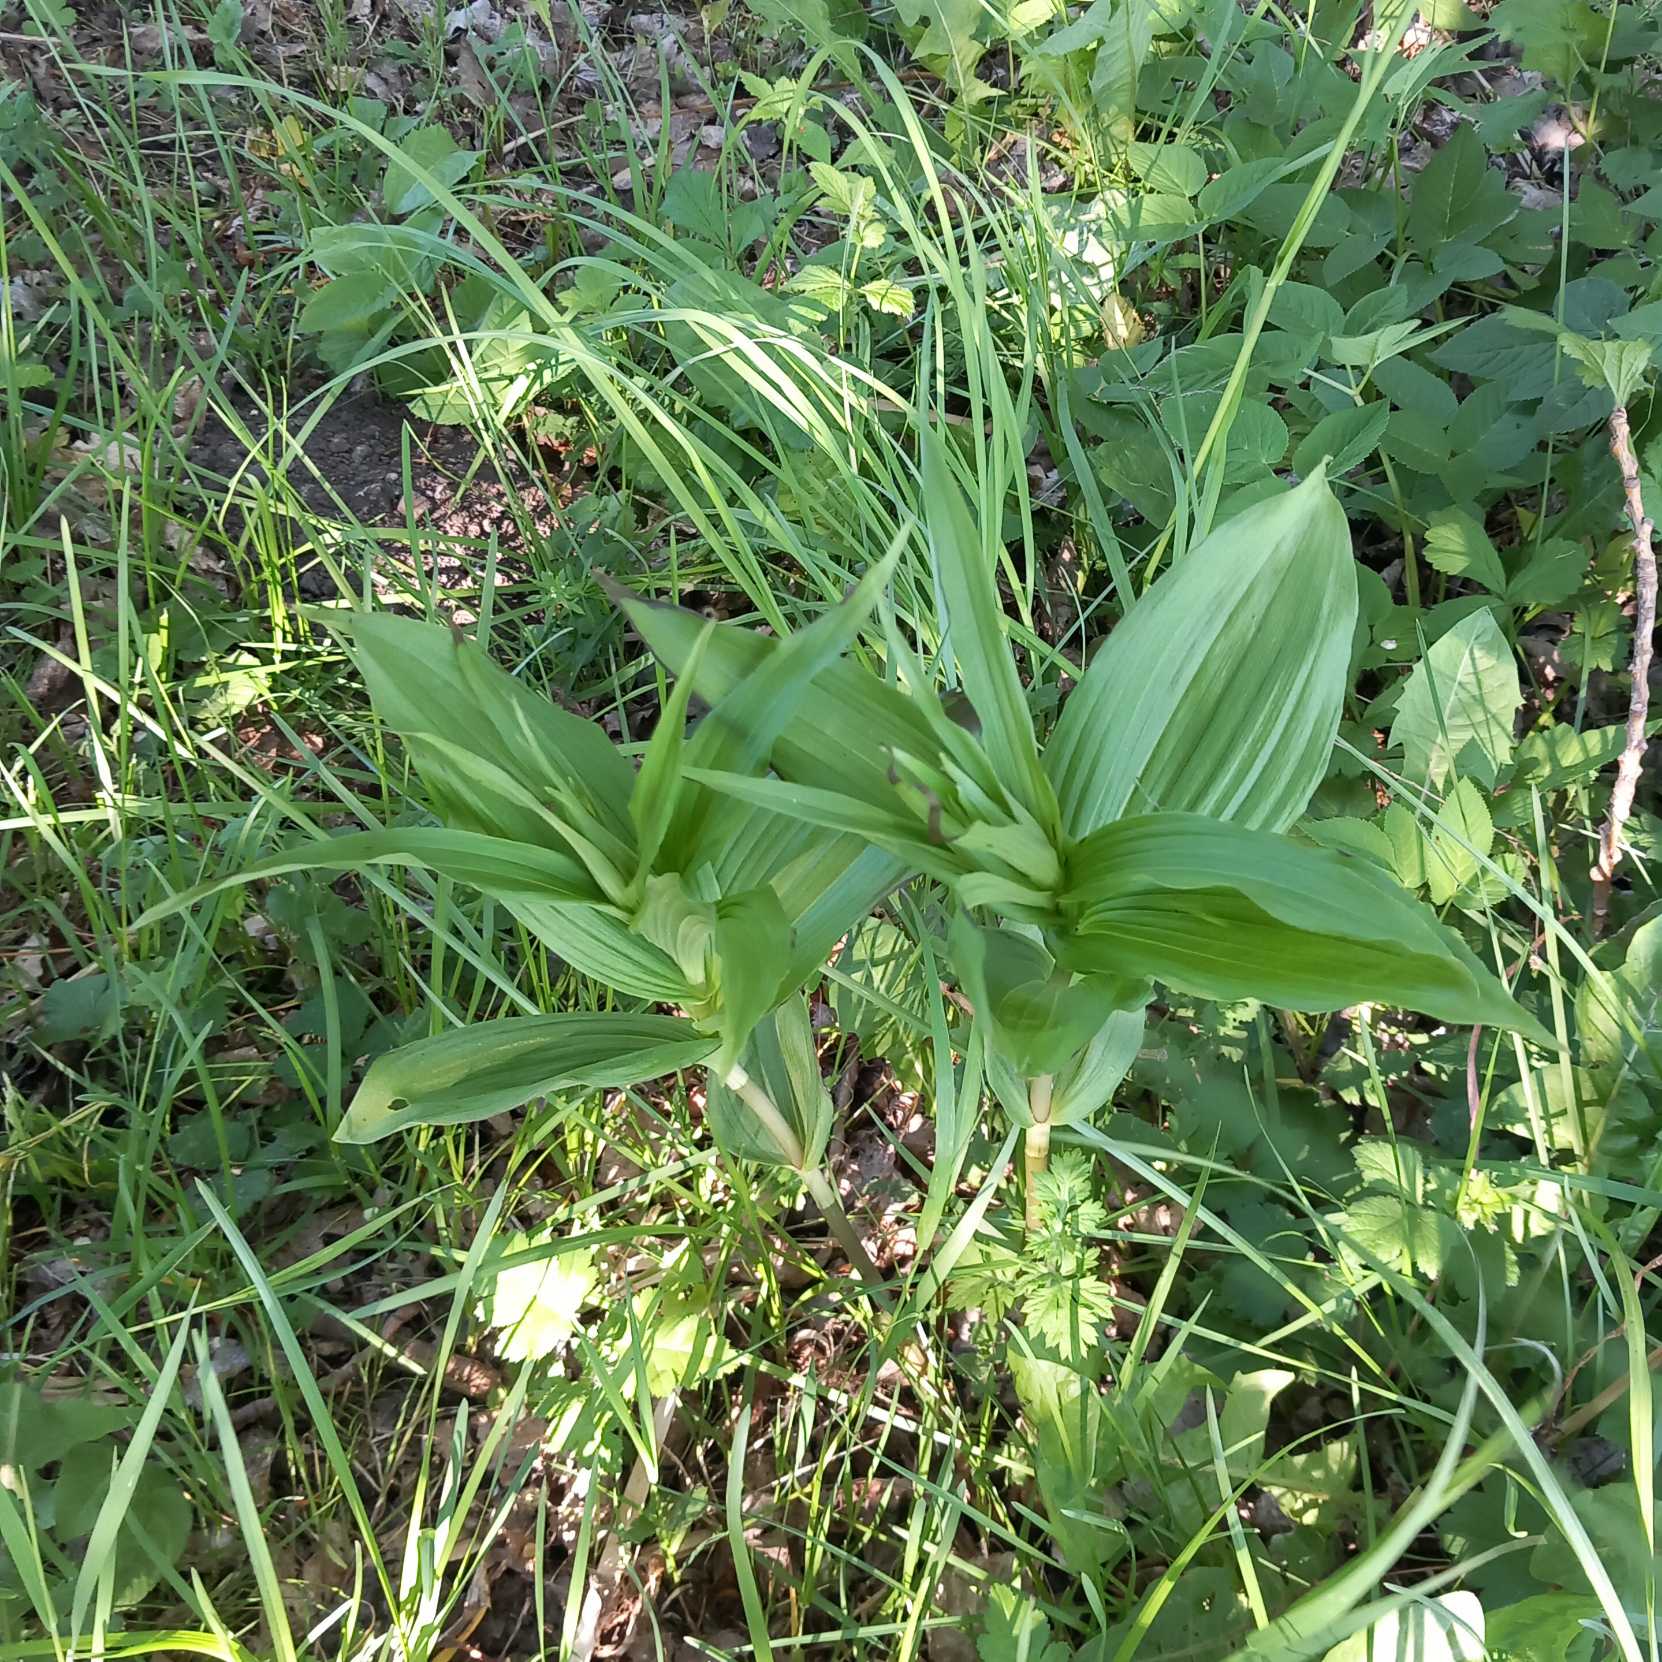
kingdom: Plantae
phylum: Tracheophyta
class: Liliopsida
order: Asparagales
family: Orchidaceae
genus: Epipactis
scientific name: Epipactis helleborine
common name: Skov-hullæbe
